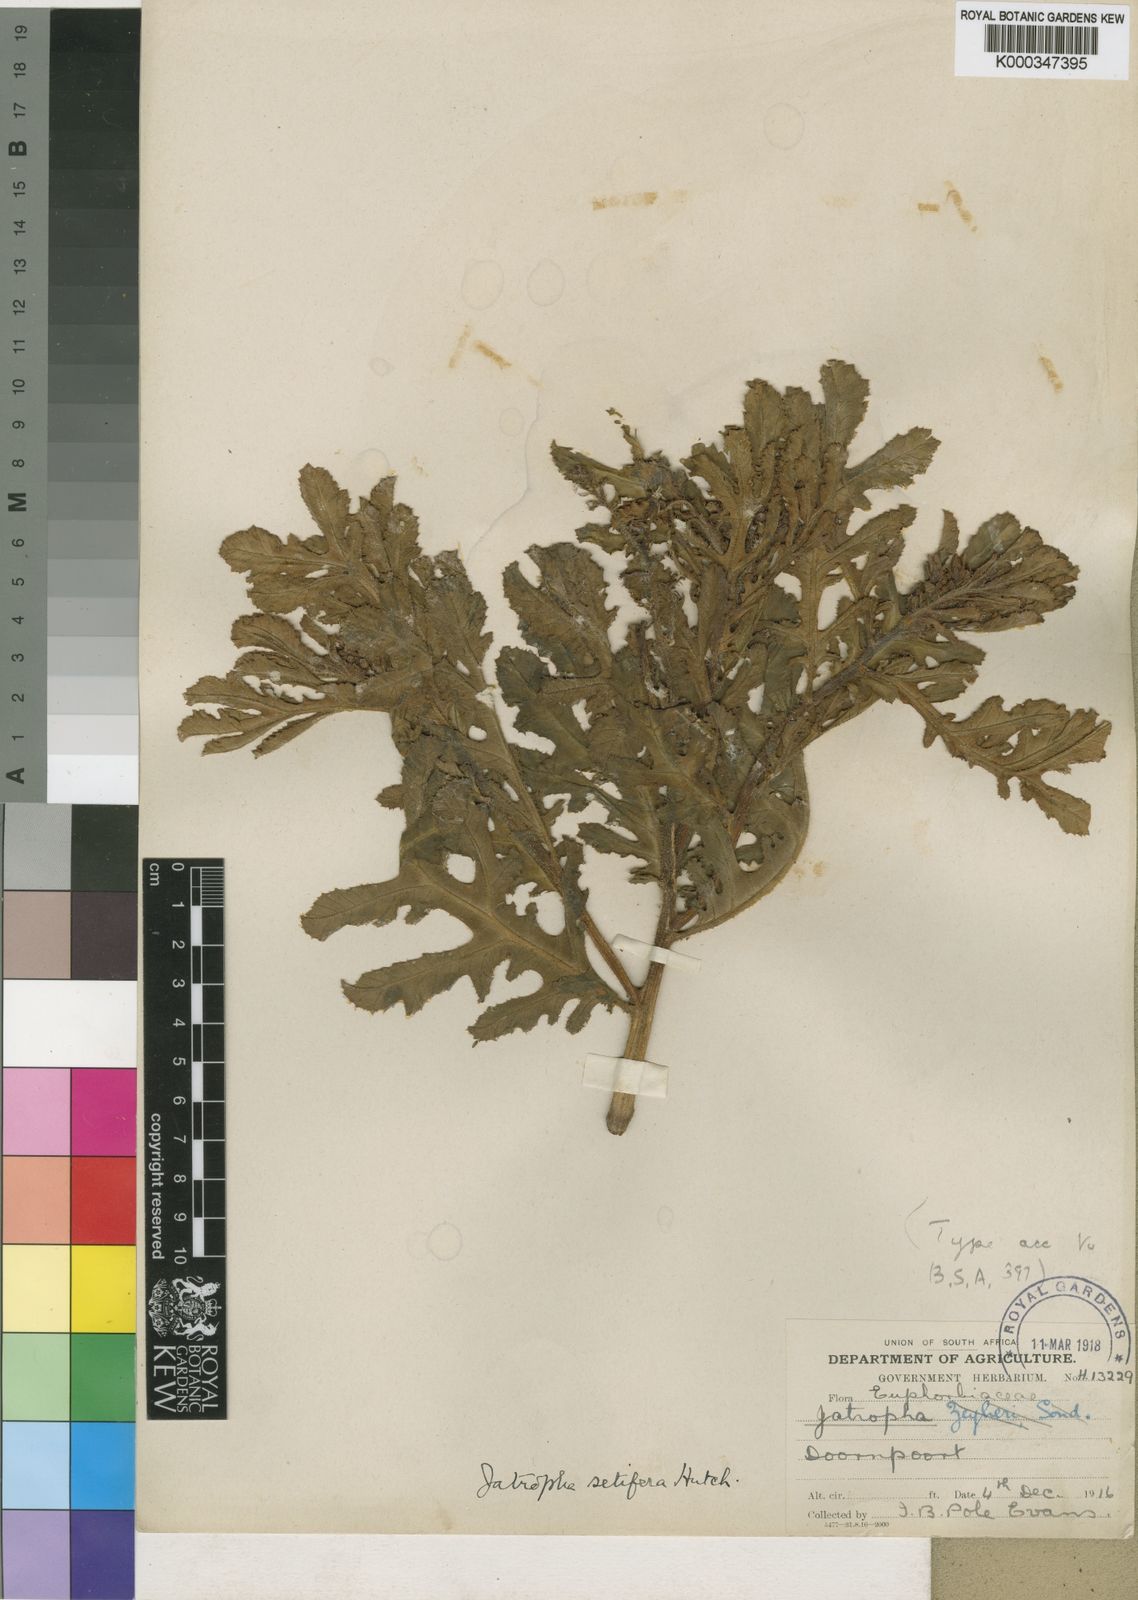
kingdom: Plantae
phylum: Tracheophyta
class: Magnoliopsida
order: Malpighiales
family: Euphorbiaceae
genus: Jatropha
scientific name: Jatropha schlechteri
